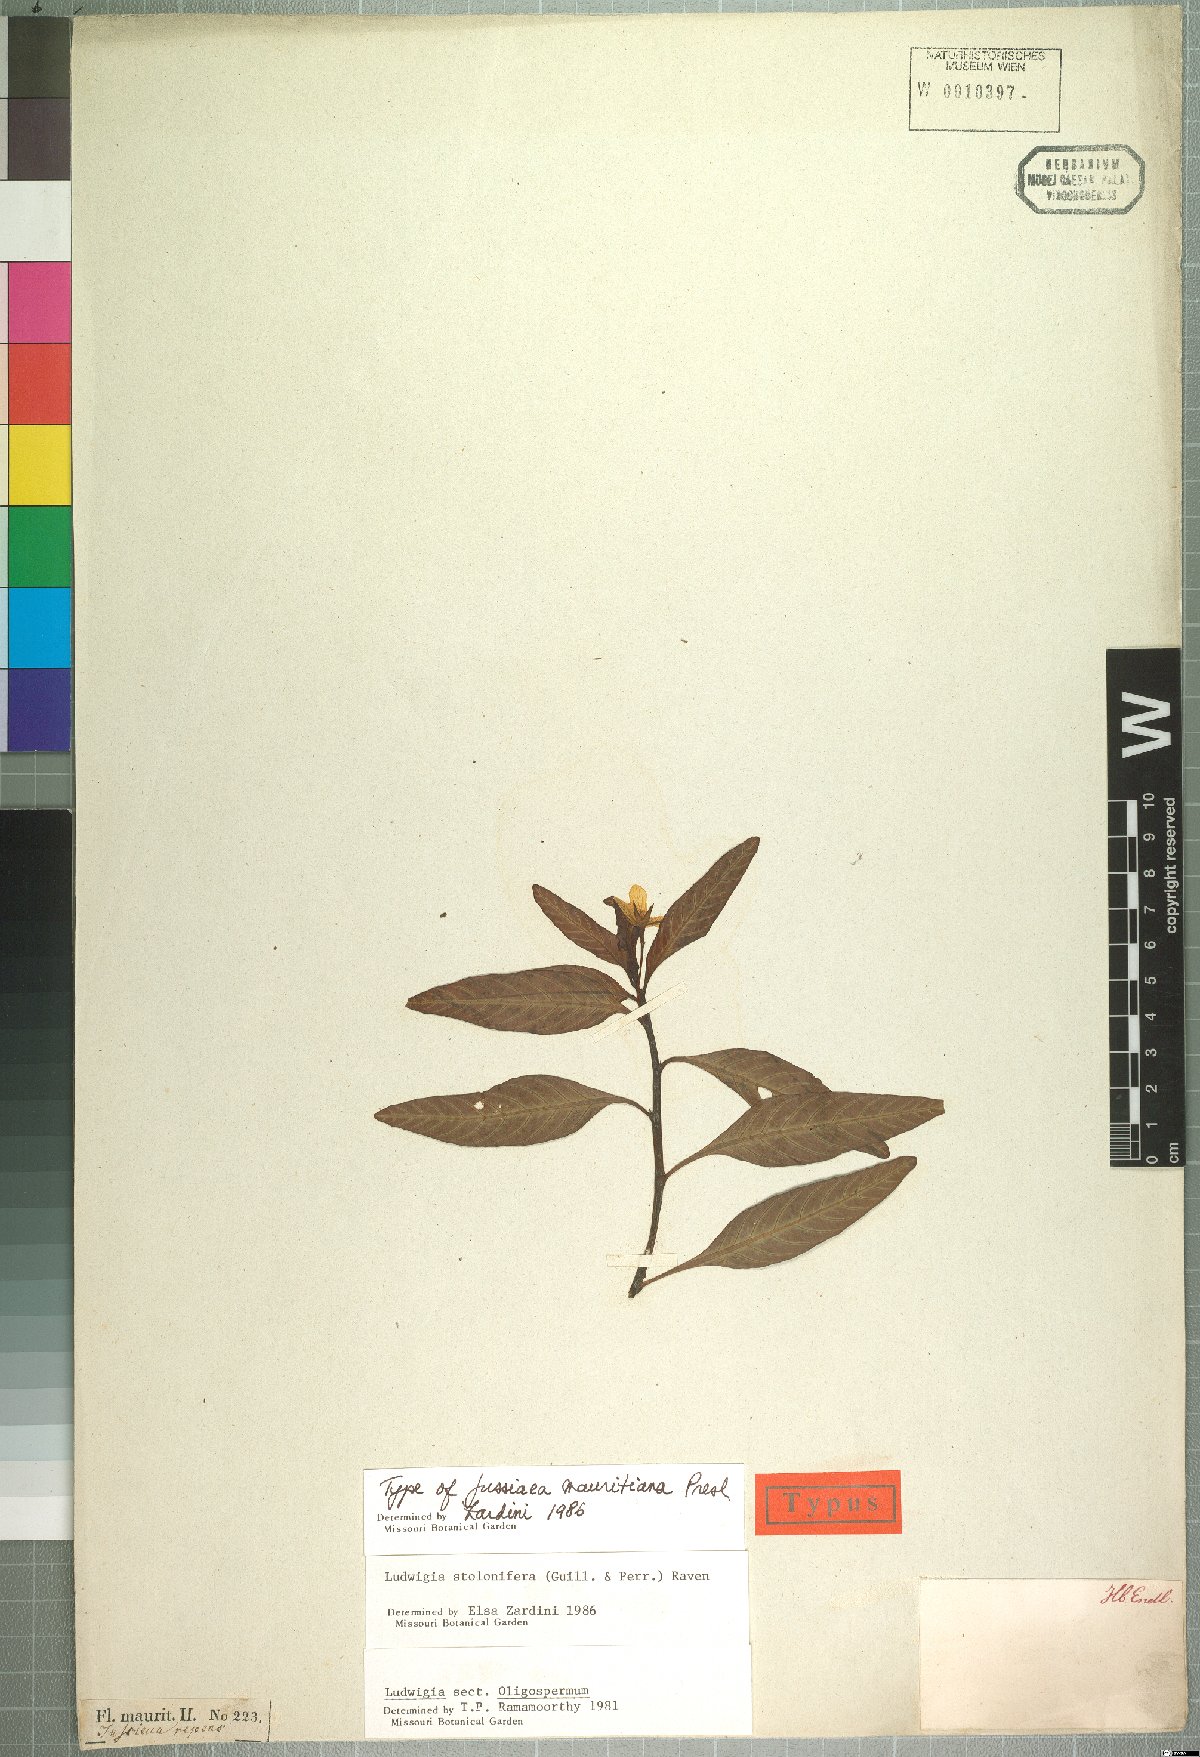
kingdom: Plantae
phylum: Tracheophyta
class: Magnoliopsida
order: Myrtales
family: Onagraceae
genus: Ludwigia
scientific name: Ludwigia adscendens
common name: Creeping water primrose
